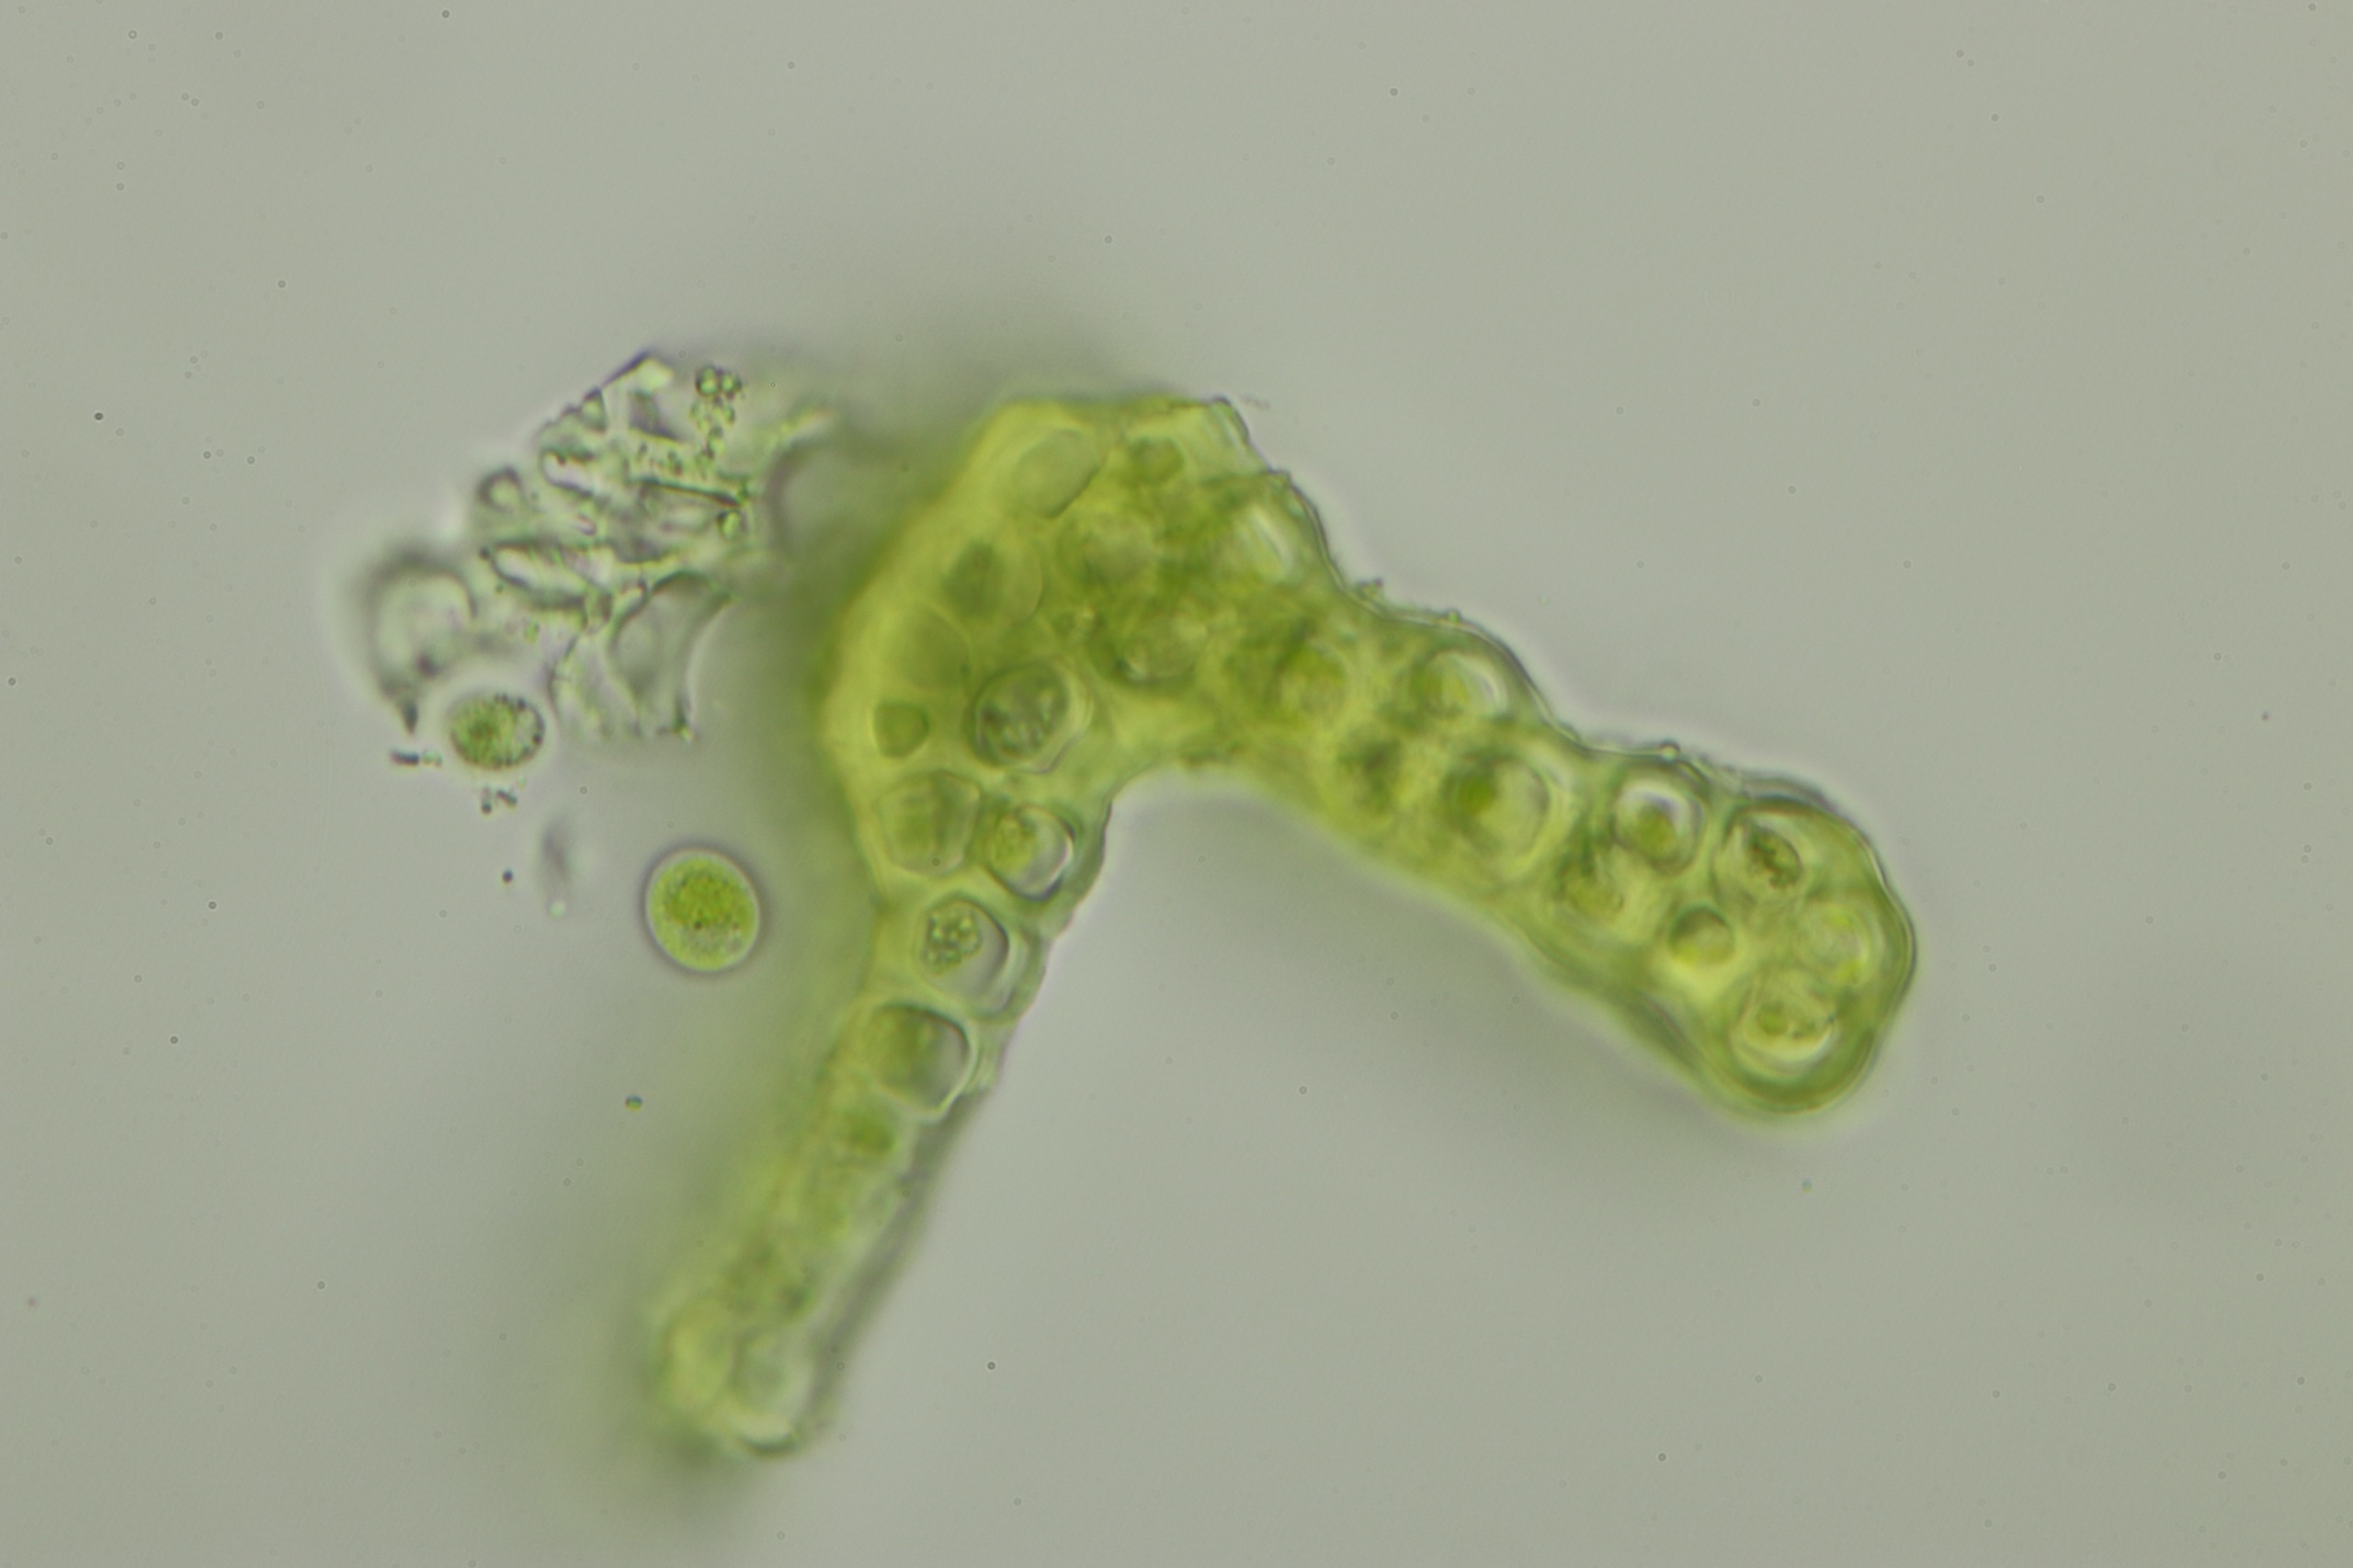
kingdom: Plantae
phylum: Bryophyta
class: Bryopsida
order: Grimmiales
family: Grimmiaceae
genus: Grimmia
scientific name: Grimmia trichophylla
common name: Glathåret gråmos
